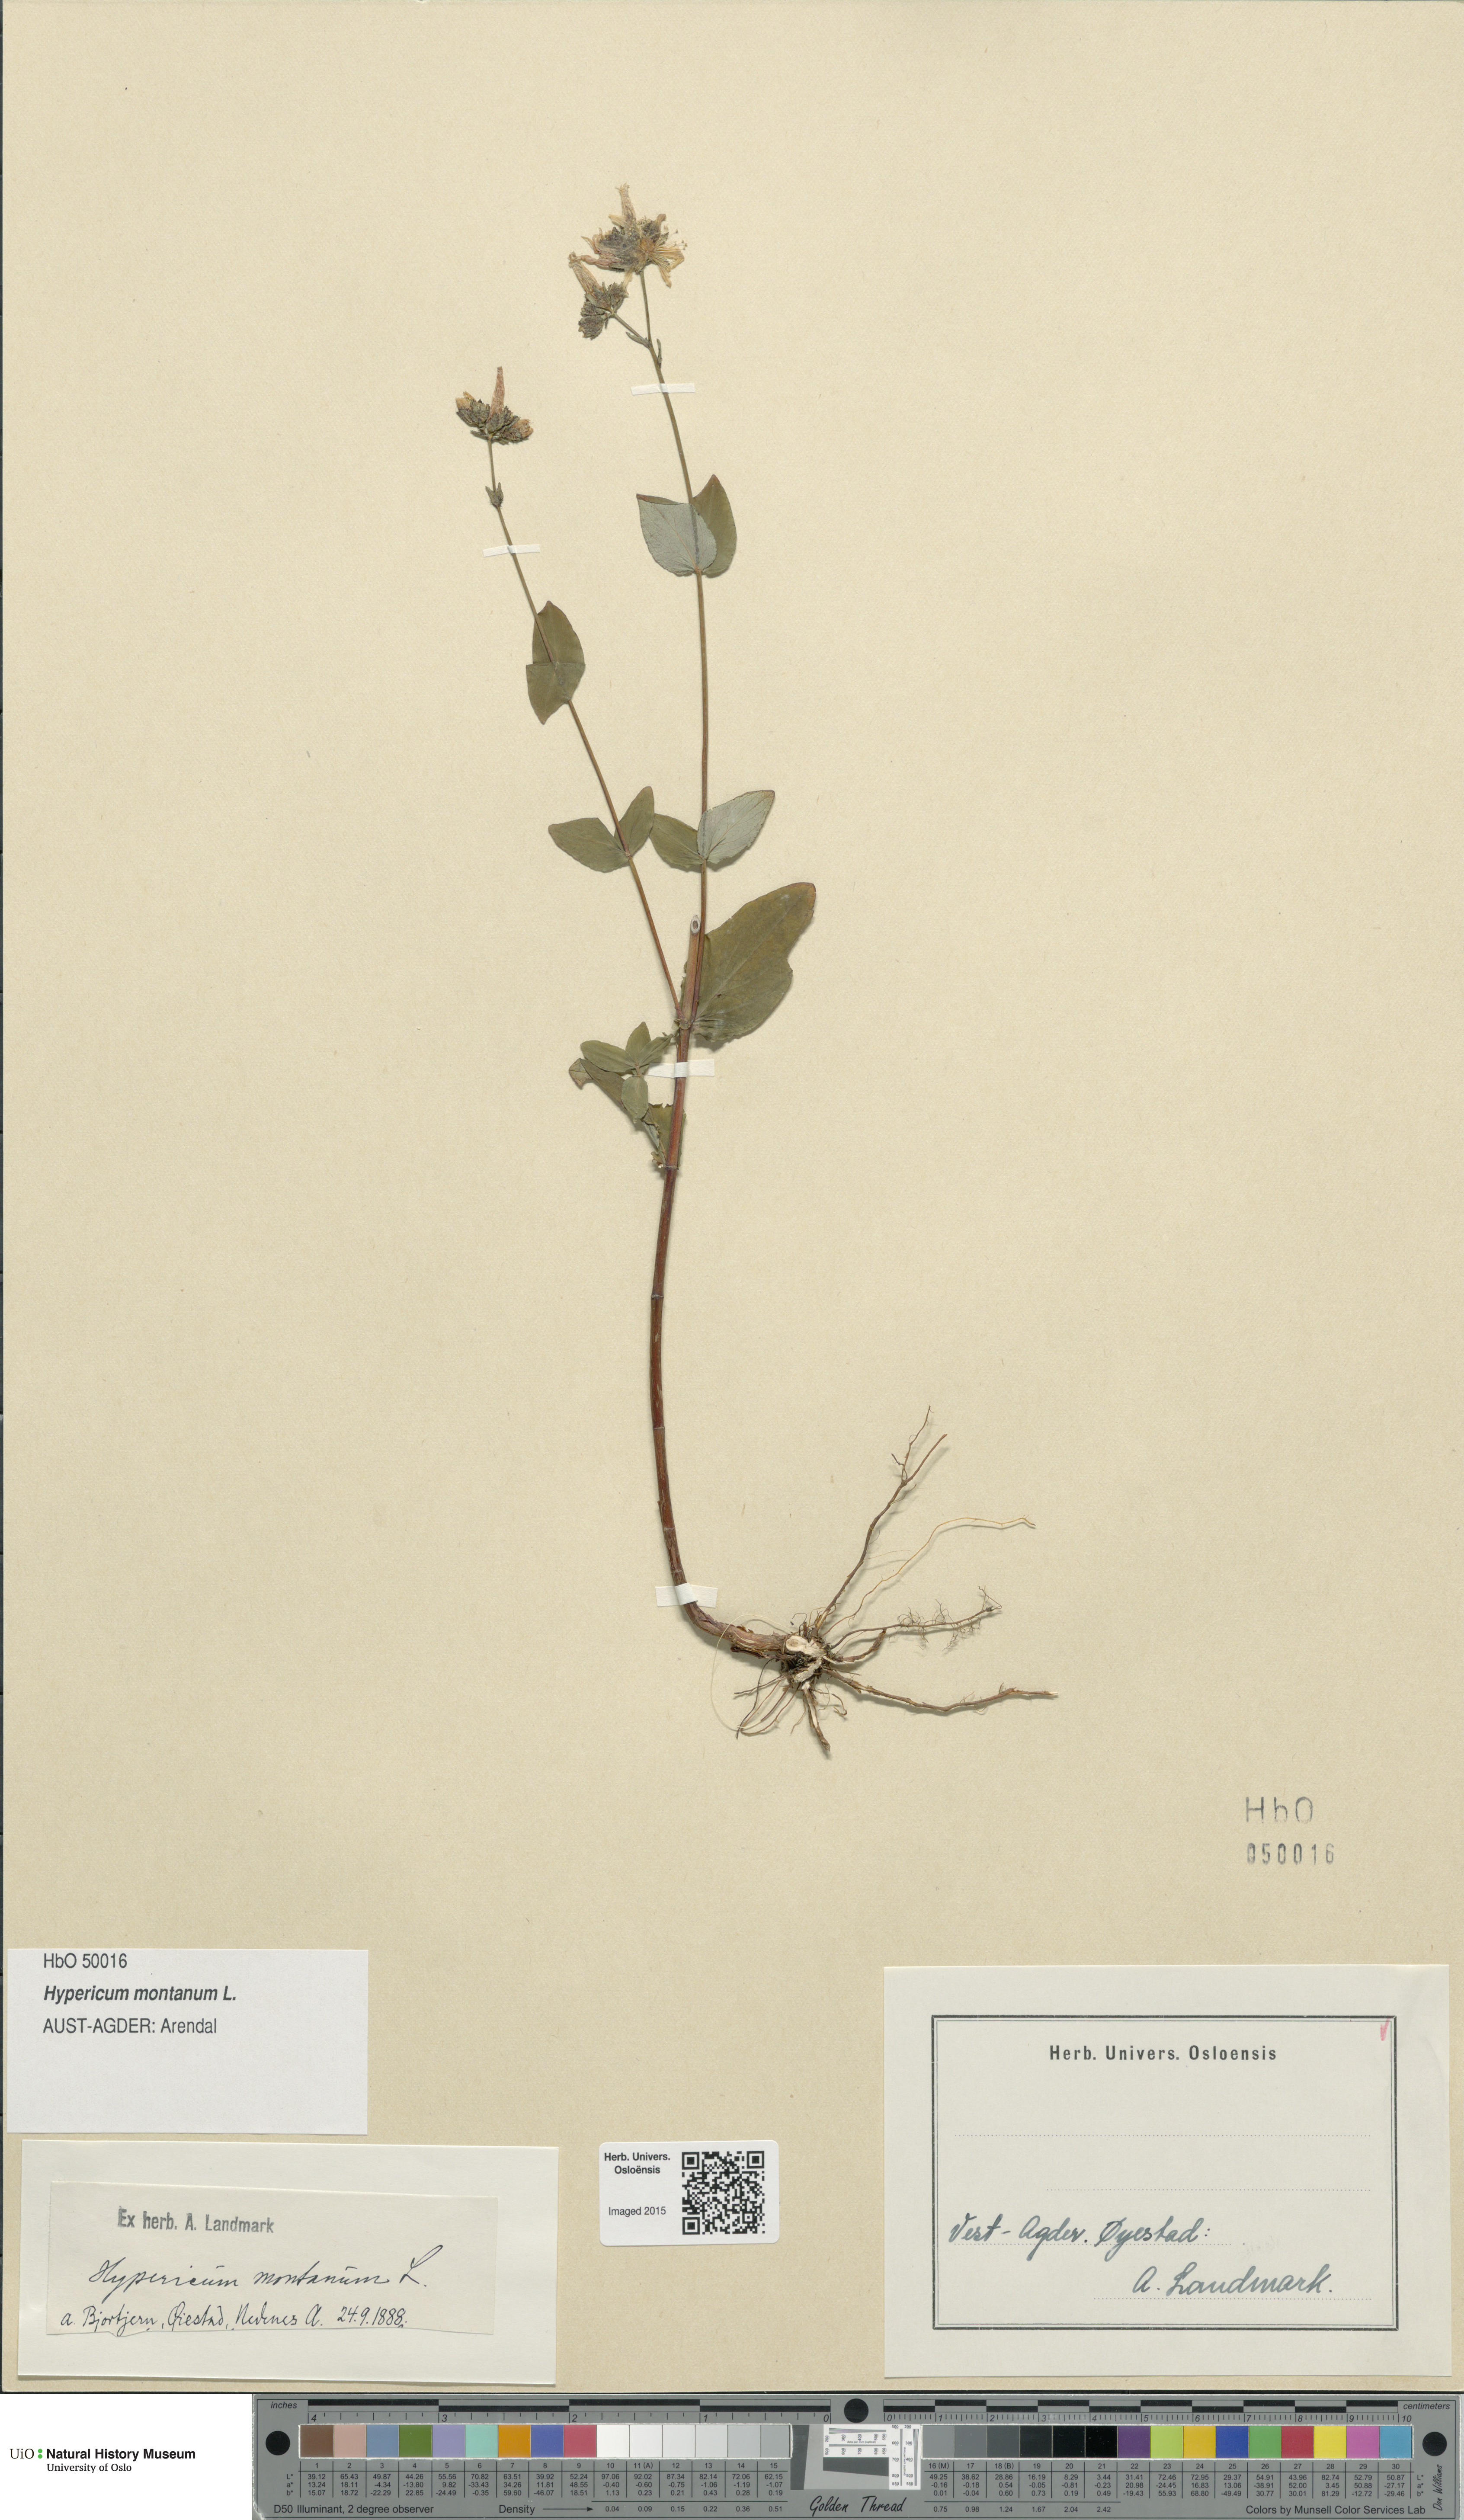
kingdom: Plantae
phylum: Tracheophyta
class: Magnoliopsida
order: Malpighiales
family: Hypericaceae
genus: Hypericum
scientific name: Hypericum montanum
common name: Pale st. john's-wort
